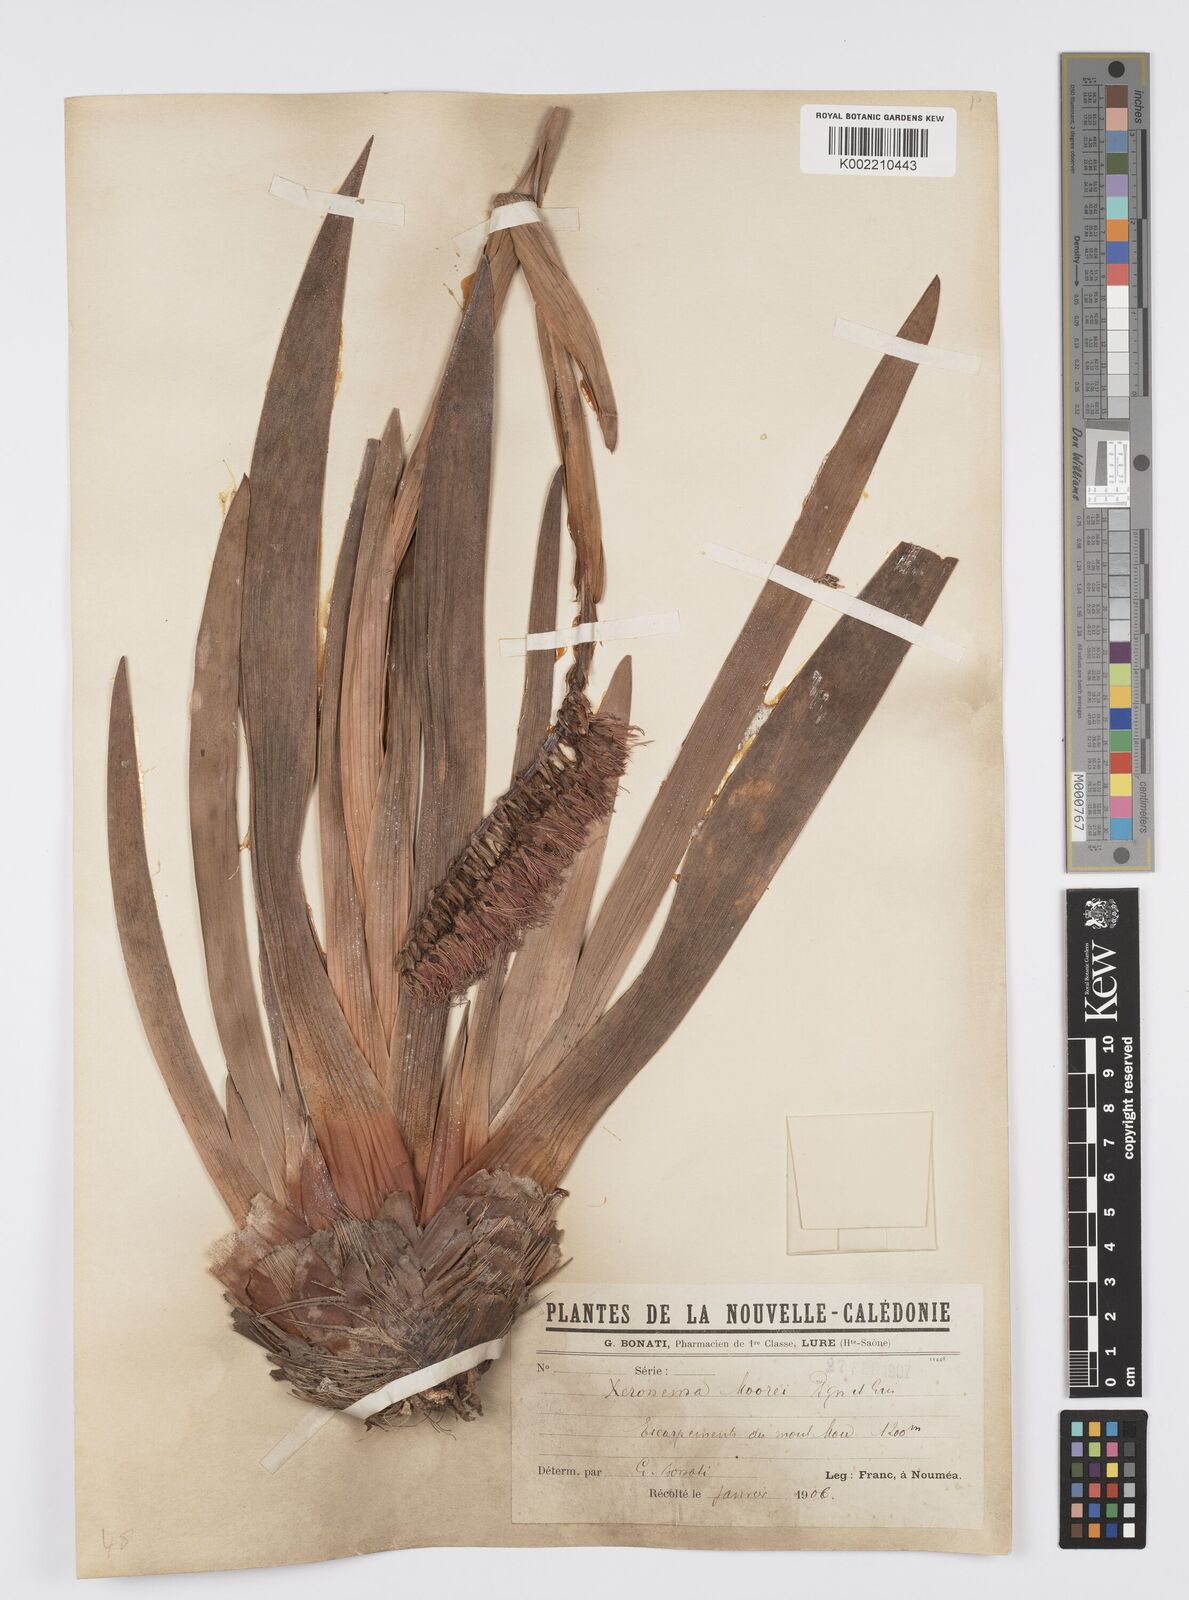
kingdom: Plantae
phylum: Tracheophyta
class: Liliopsida
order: Asparagales
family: Xeronemataceae
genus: Xeronema
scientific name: Xeronema moorei
